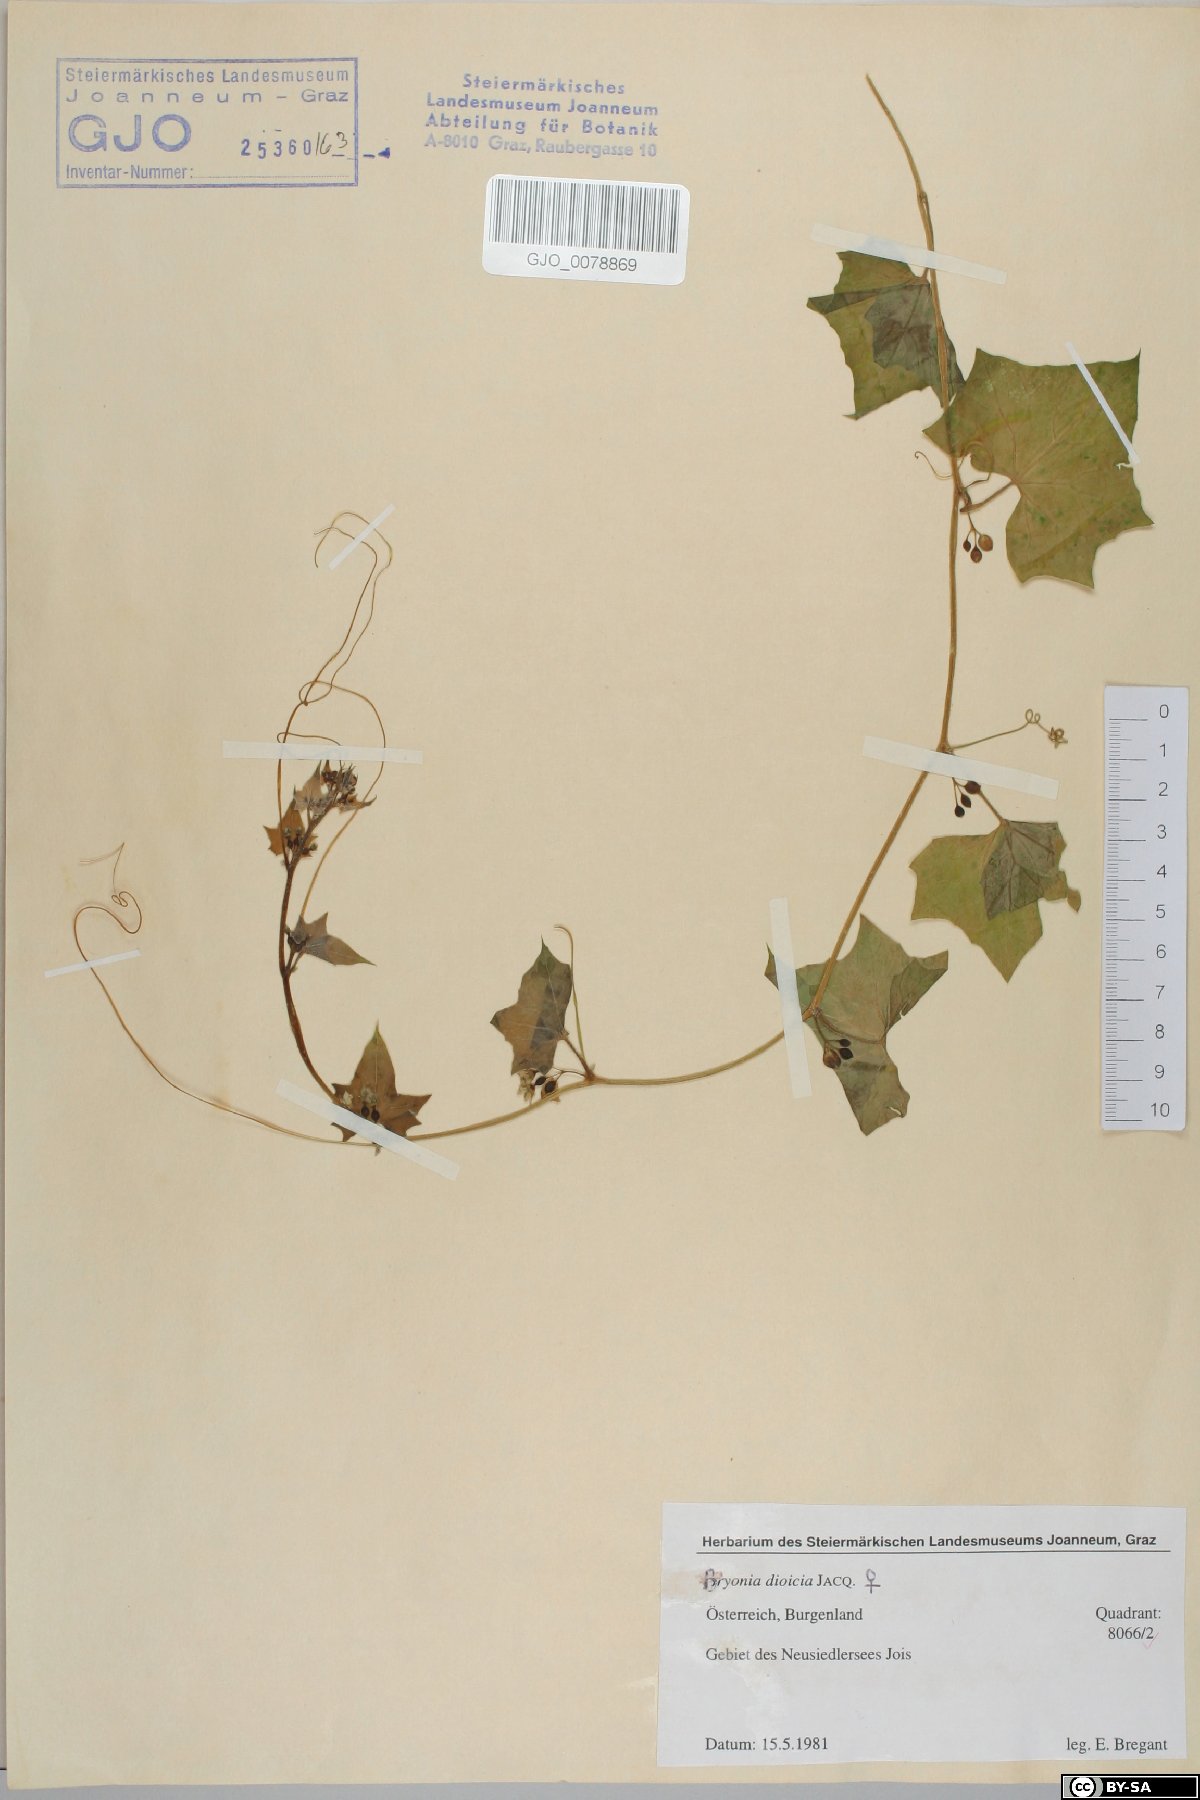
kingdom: Plantae
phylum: Tracheophyta
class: Magnoliopsida
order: Cucurbitales
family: Cucurbitaceae
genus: Bryonia
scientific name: Bryonia dioica
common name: White bryony
